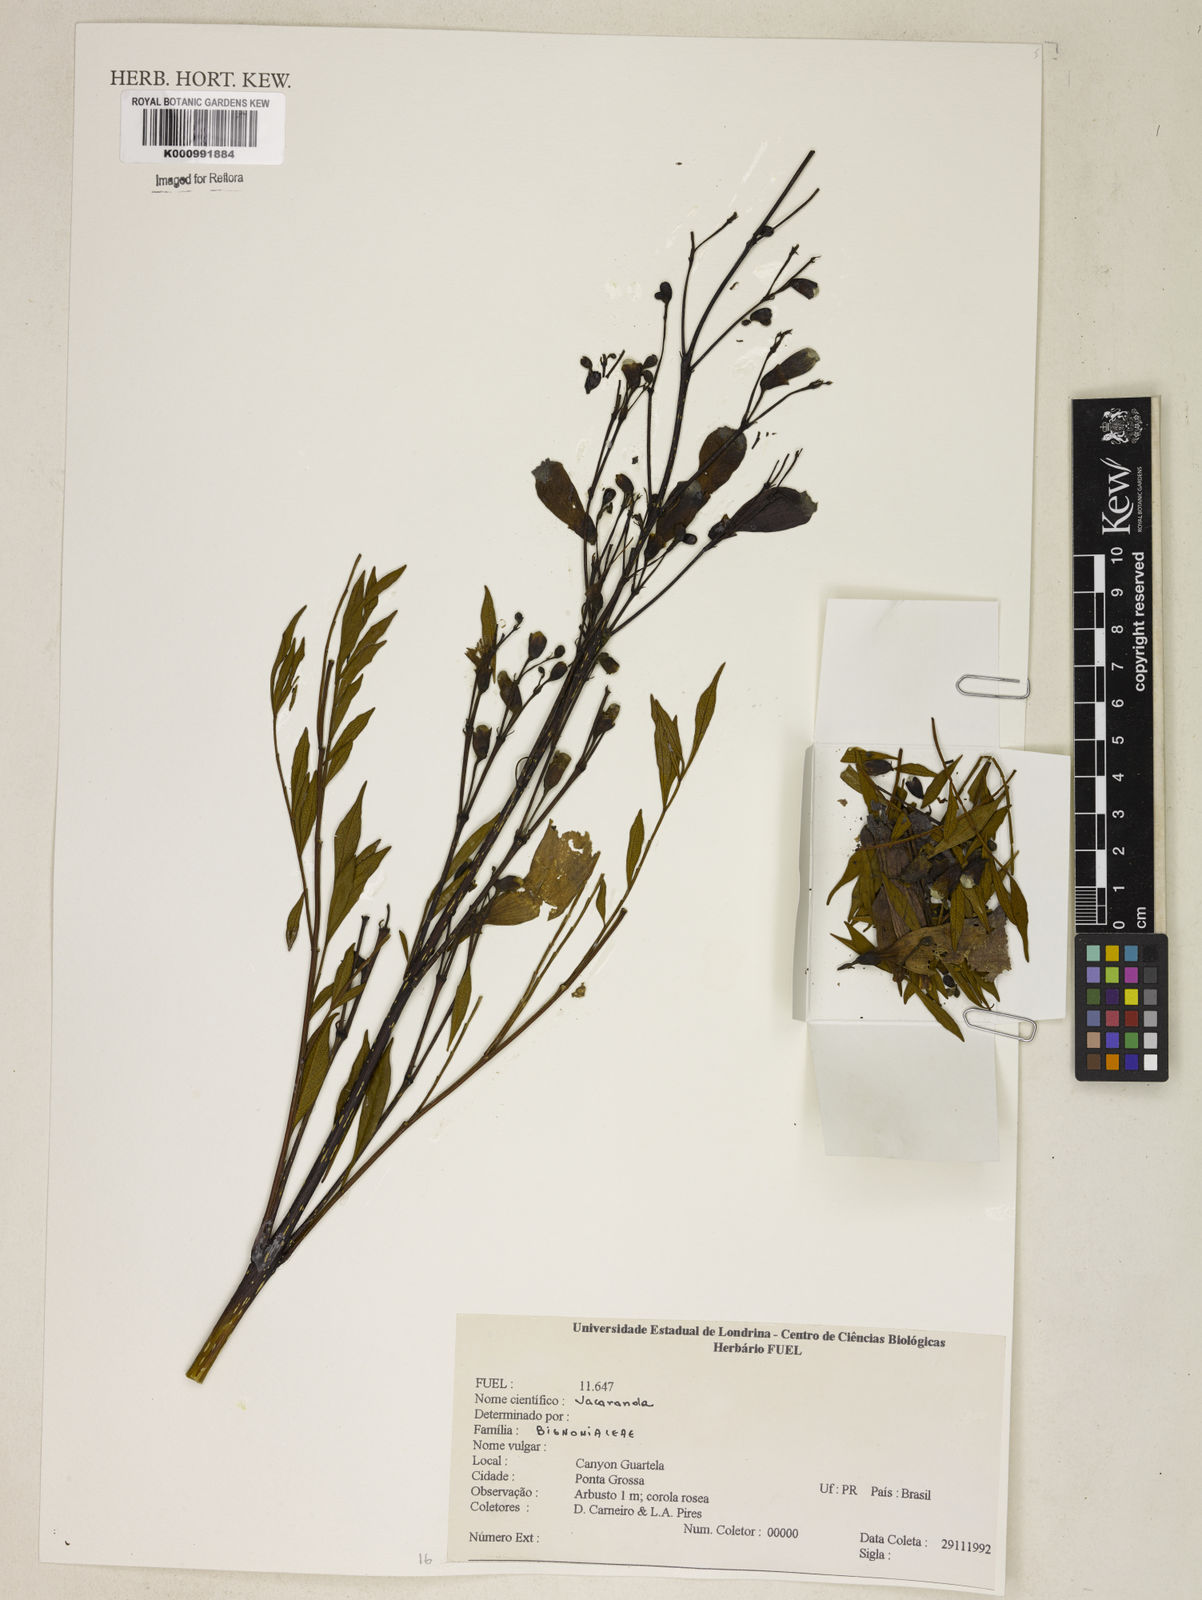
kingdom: Plantae
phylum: Tracheophyta
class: Magnoliopsida
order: Lamiales
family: Bignoniaceae
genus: Jacaranda
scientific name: Jacaranda
